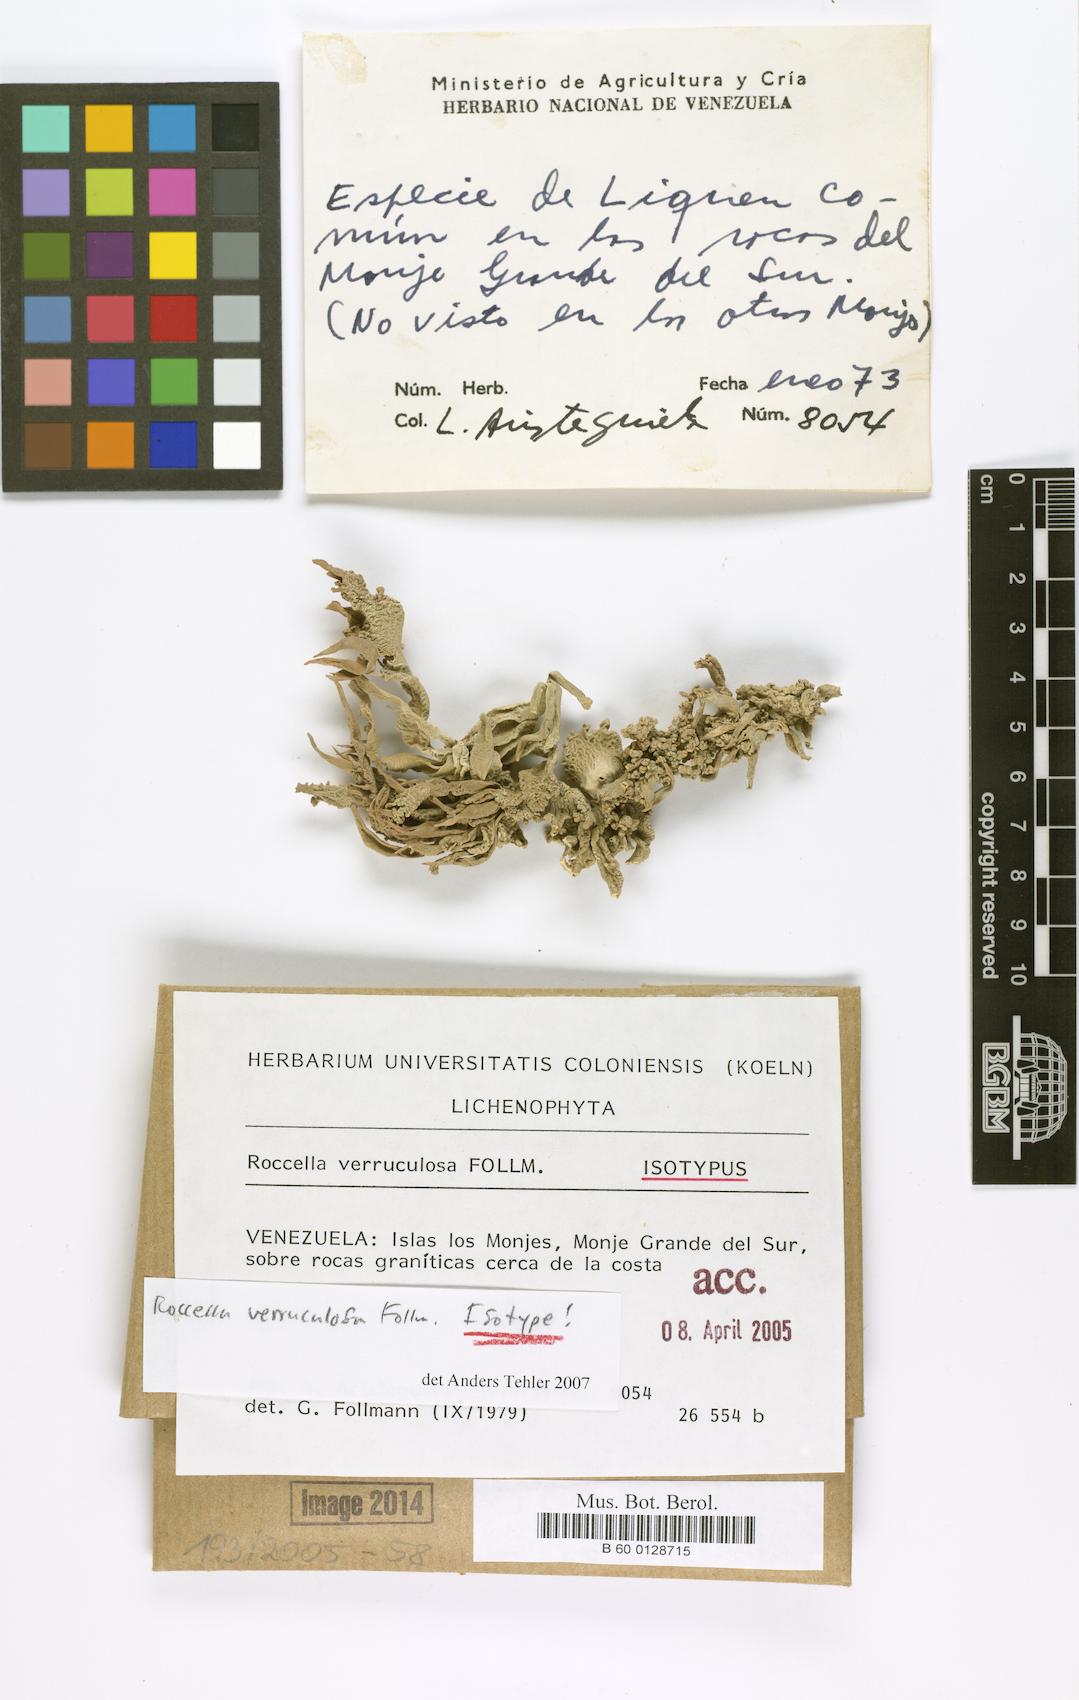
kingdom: Fungi
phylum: Ascomycota
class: Arthoniomycetes
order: Arthoniales
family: Roccellaceae
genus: Roccella
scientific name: Roccella verruculosa
